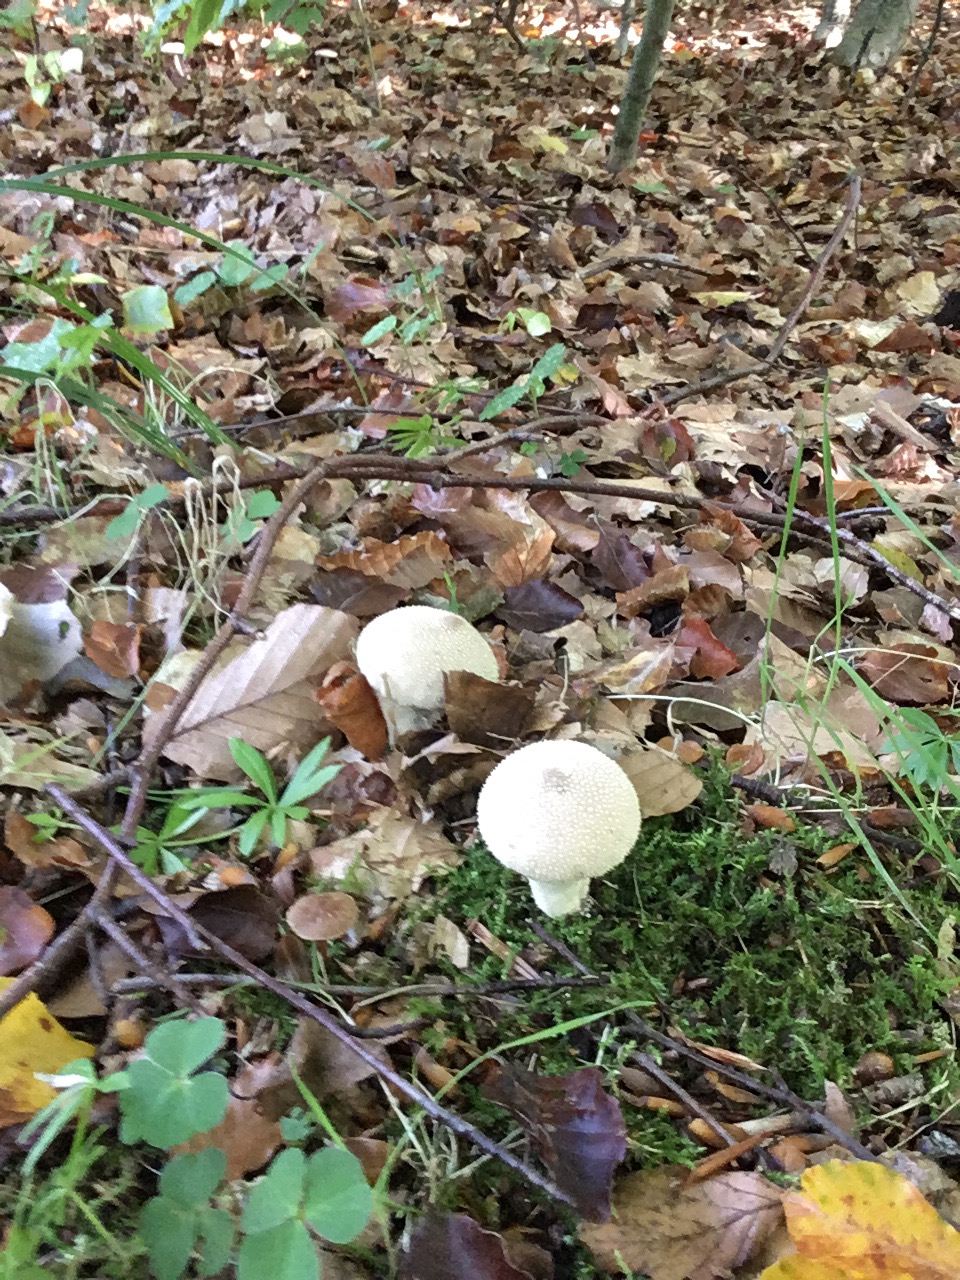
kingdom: Fungi
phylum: Basidiomycota
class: Agaricomycetes
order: Agaricales
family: Lycoperdaceae
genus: Lycoperdon
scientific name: Lycoperdon perlatum
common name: krystal-støvbold
